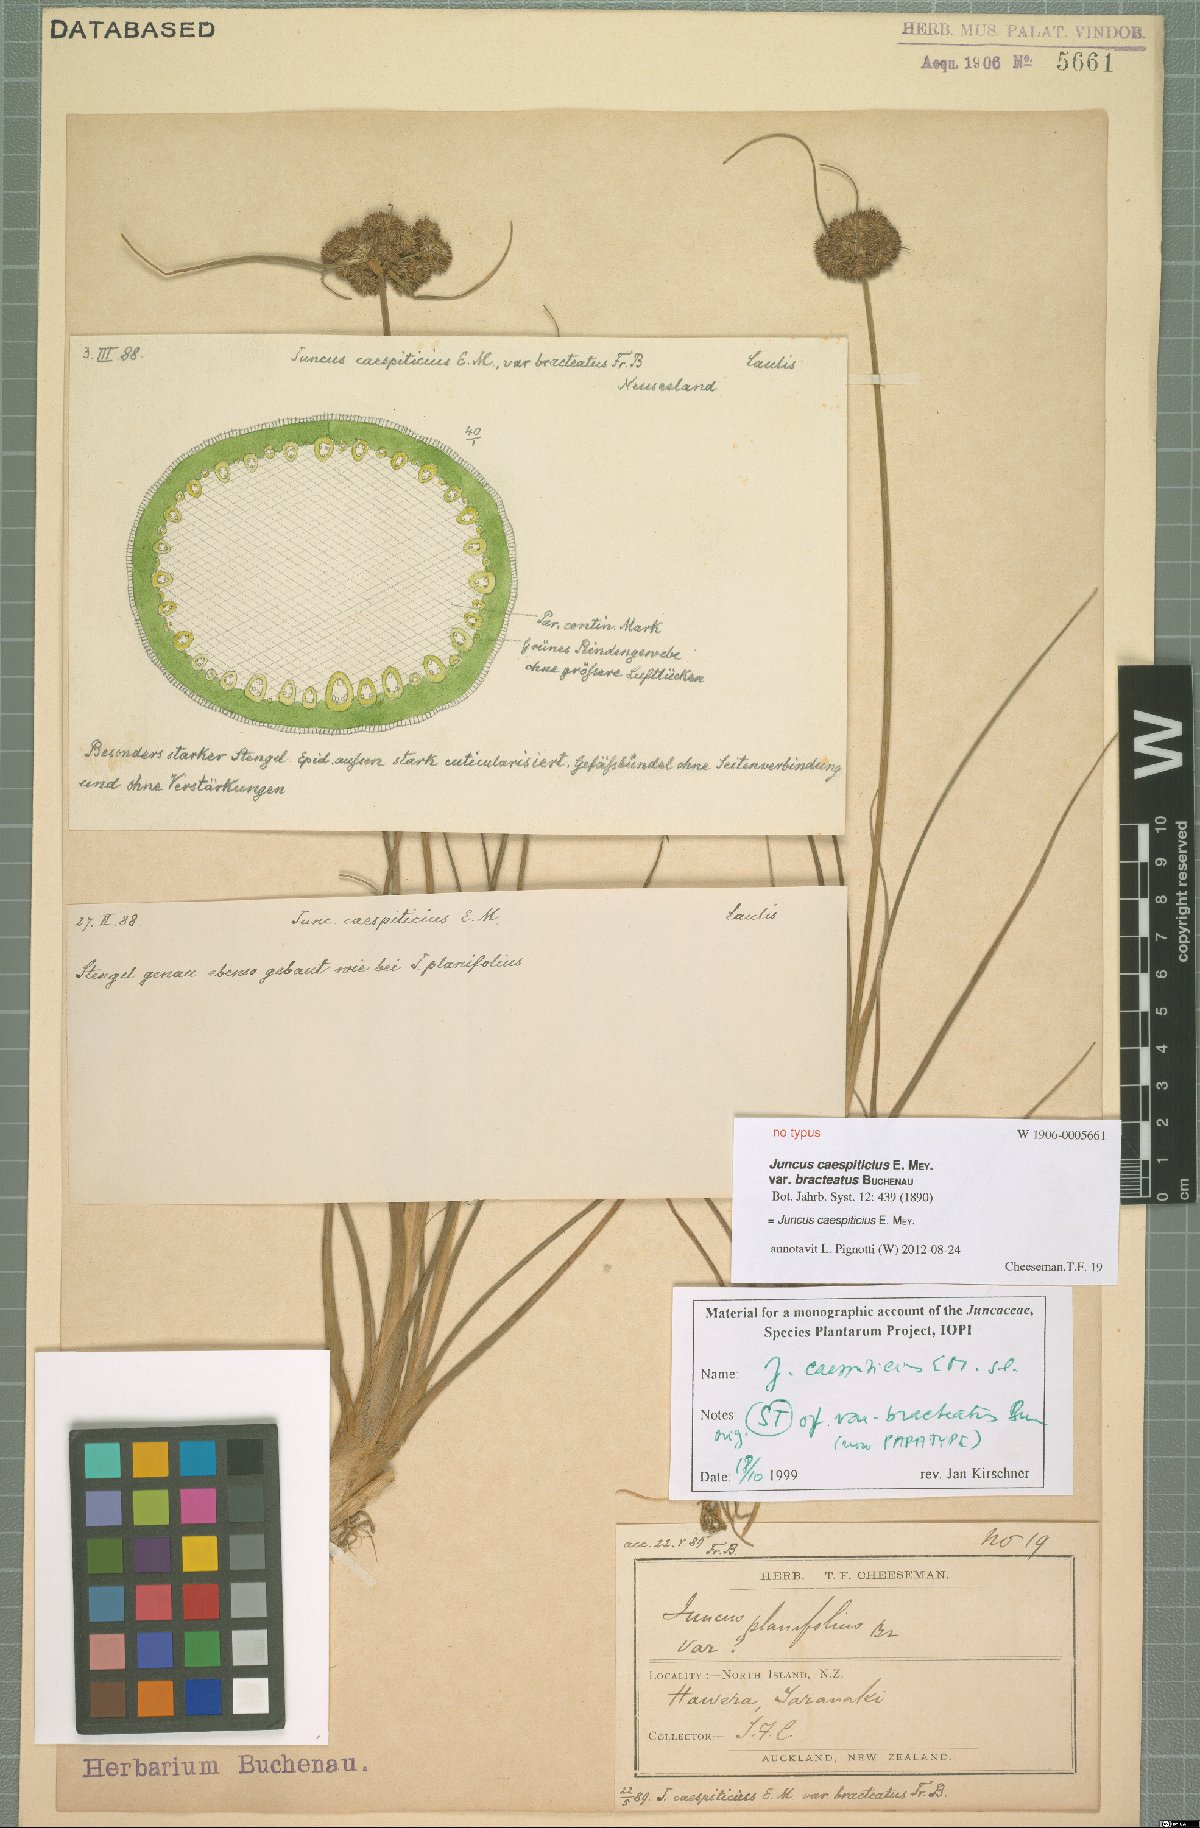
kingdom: Plantae
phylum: Tracheophyta
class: Liliopsida
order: Poales
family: Juncaceae
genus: Juncus
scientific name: Juncus caespiticius
